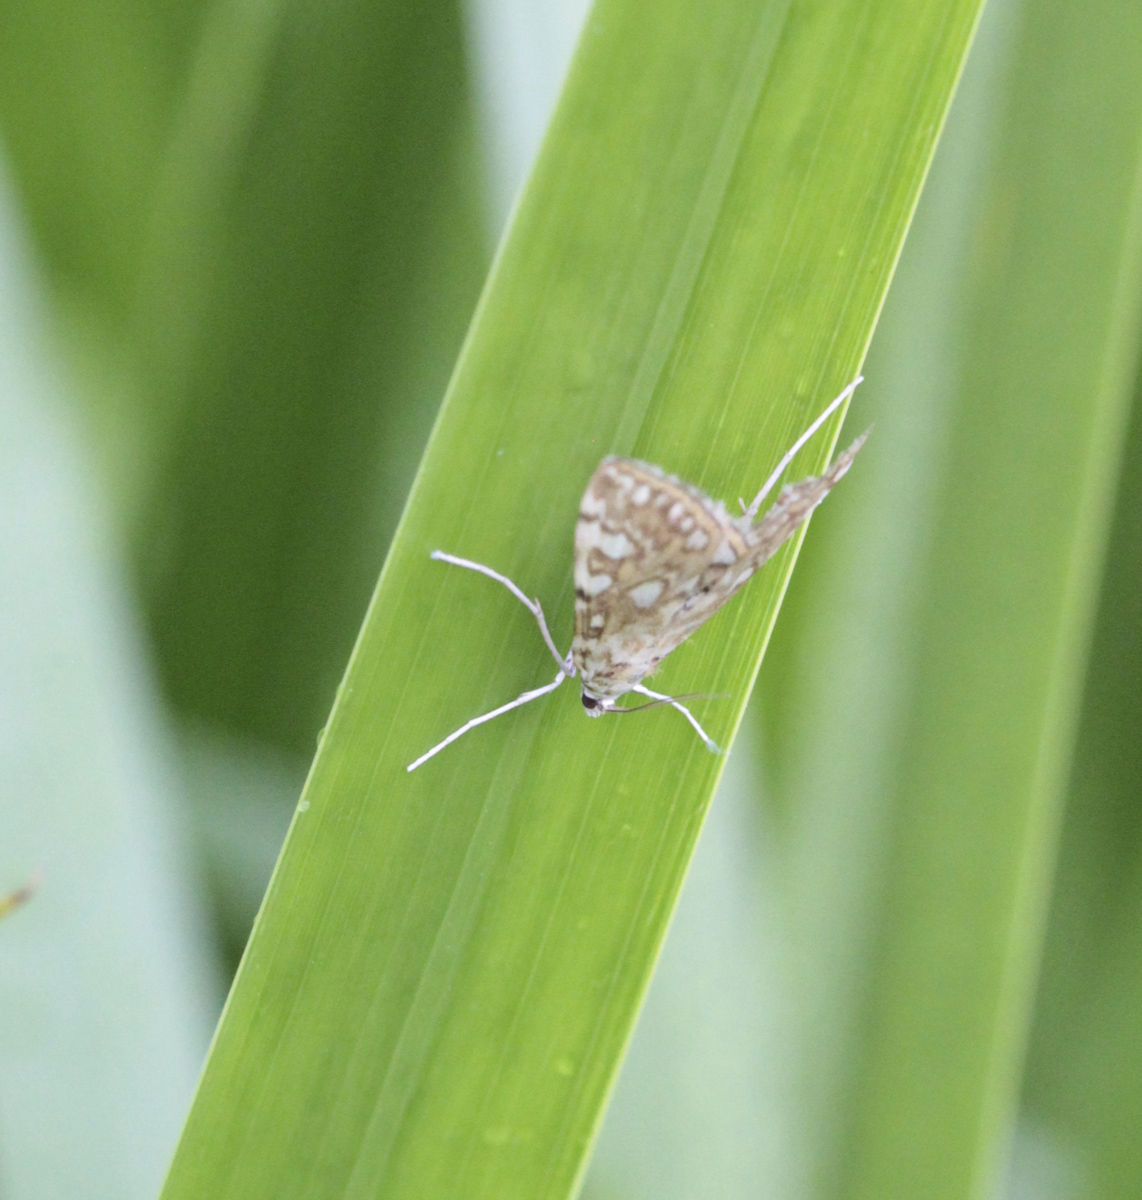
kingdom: Animalia
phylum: Arthropoda
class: Insecta
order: Lepidoptera
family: Crambidae
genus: Elophila
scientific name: Elophila nymphaeata
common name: Brown china-mark
